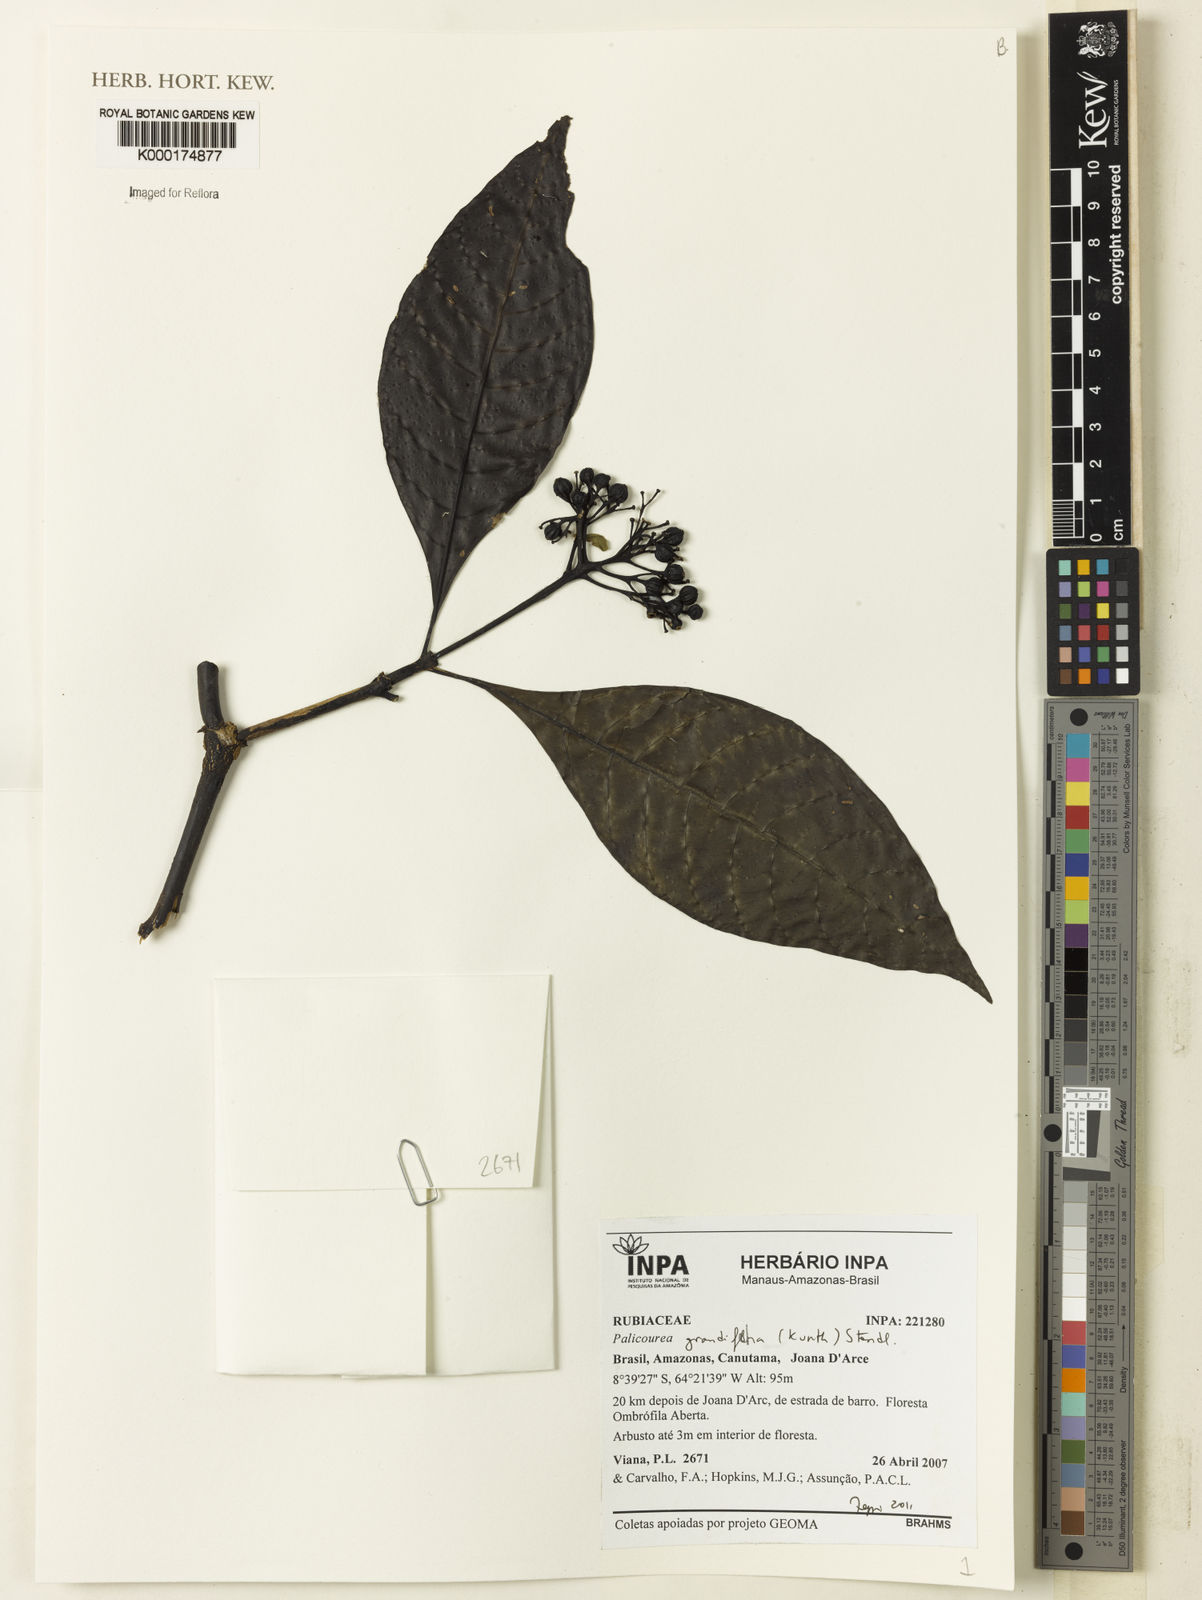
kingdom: Plantae
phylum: Tracheophyta
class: Magnoliopsida
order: Gentianales
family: Rubiaceae
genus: Palicourea
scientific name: Palicourea grandiflora
